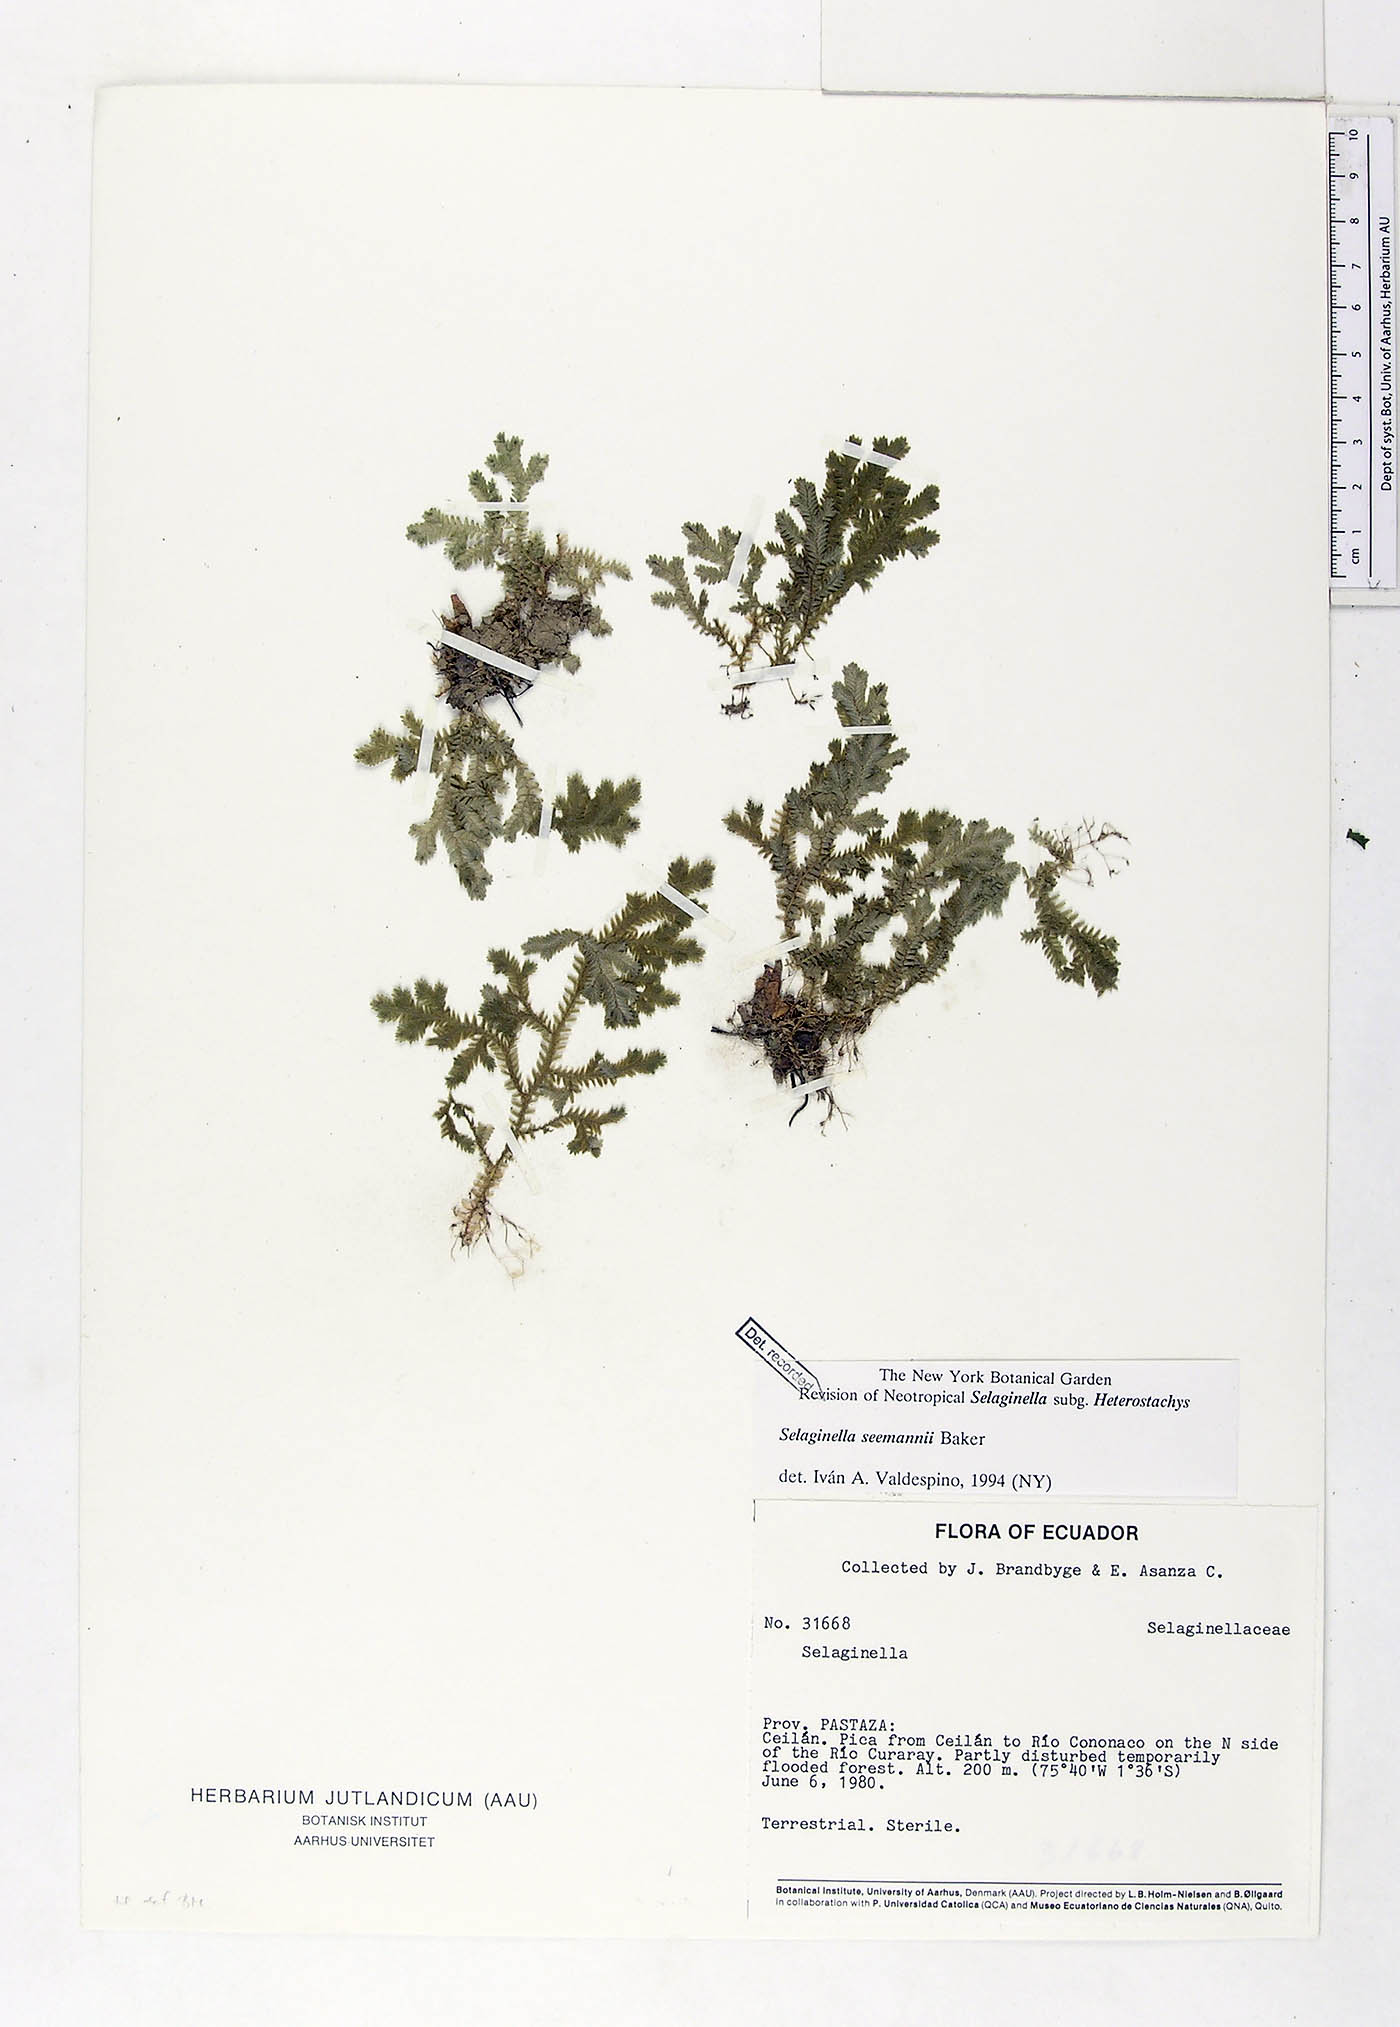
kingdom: Plantae
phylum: Tracheophyta
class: Lycopodiopsida
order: Selaginellales
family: Selaginellaceae
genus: Selaginella
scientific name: Selaginella seemannii
